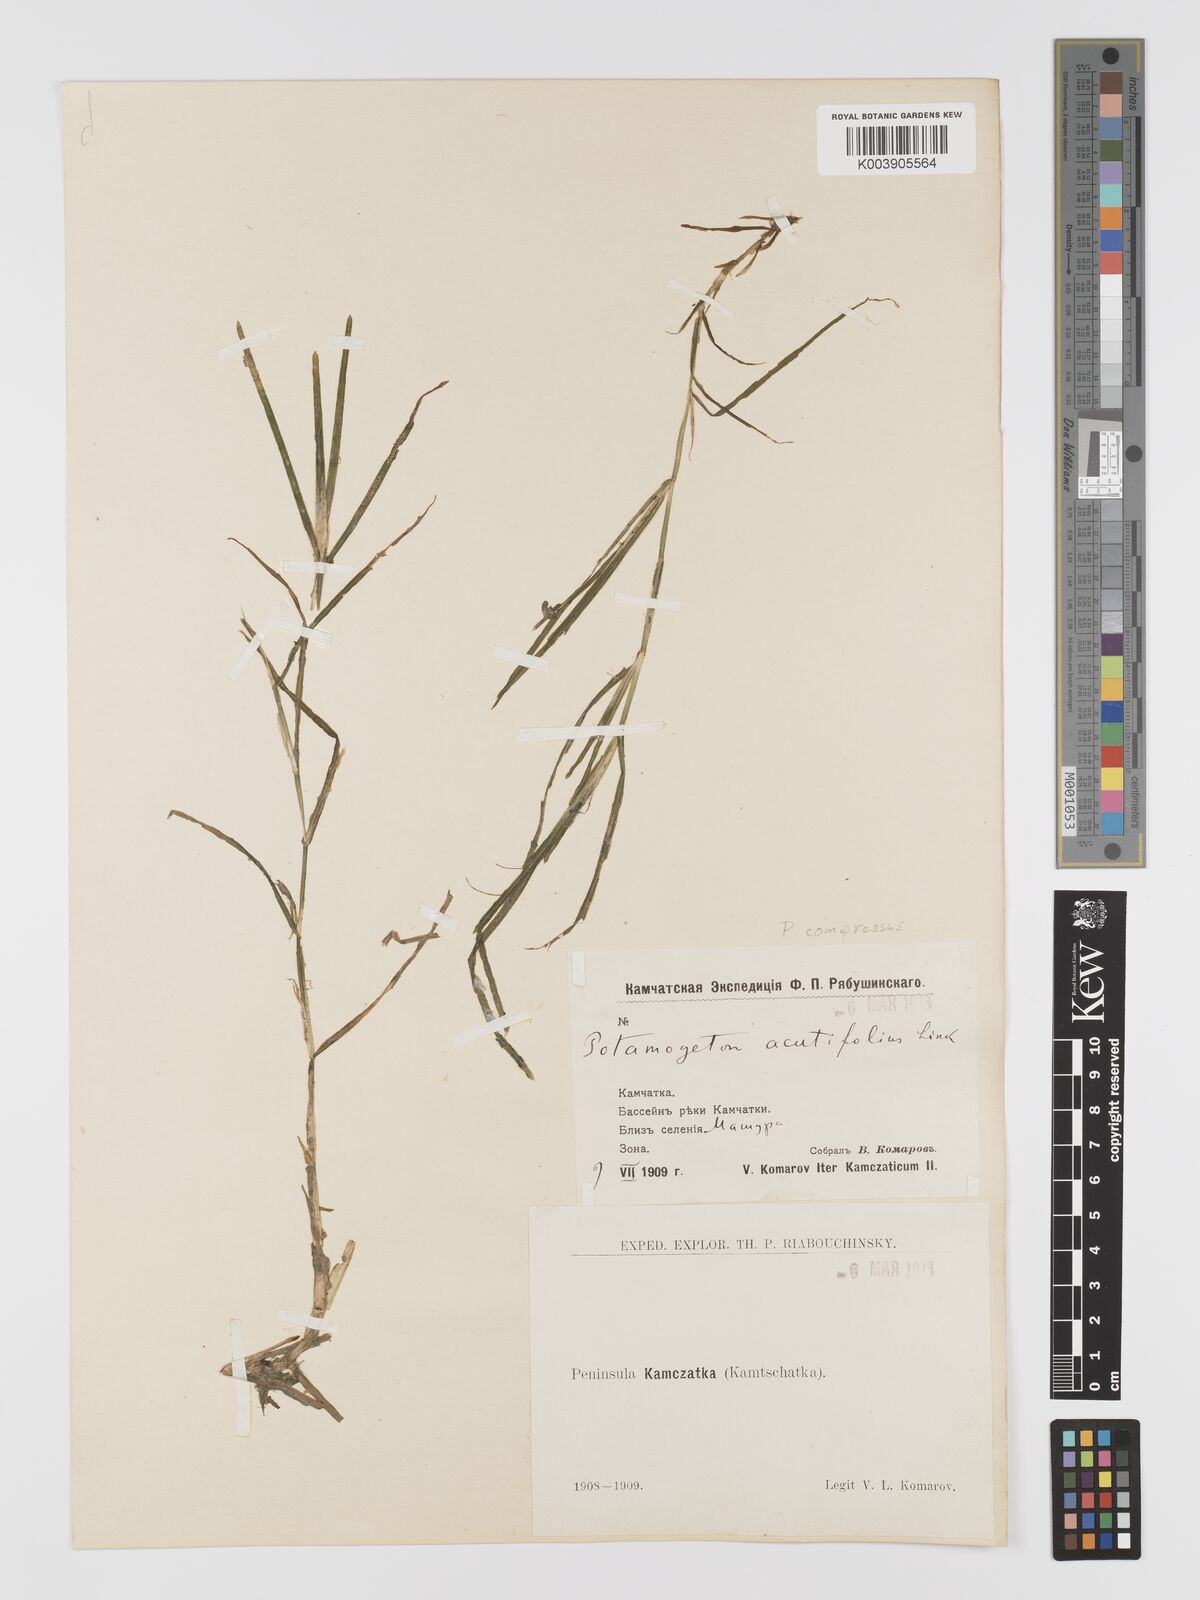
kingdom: Plantae
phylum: Tracheophyta
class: Liliopsida
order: Alismatales
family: Potamogetonaceae
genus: Potamogeton
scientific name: Potamogeton compressus
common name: Grass-wrack pondweed
